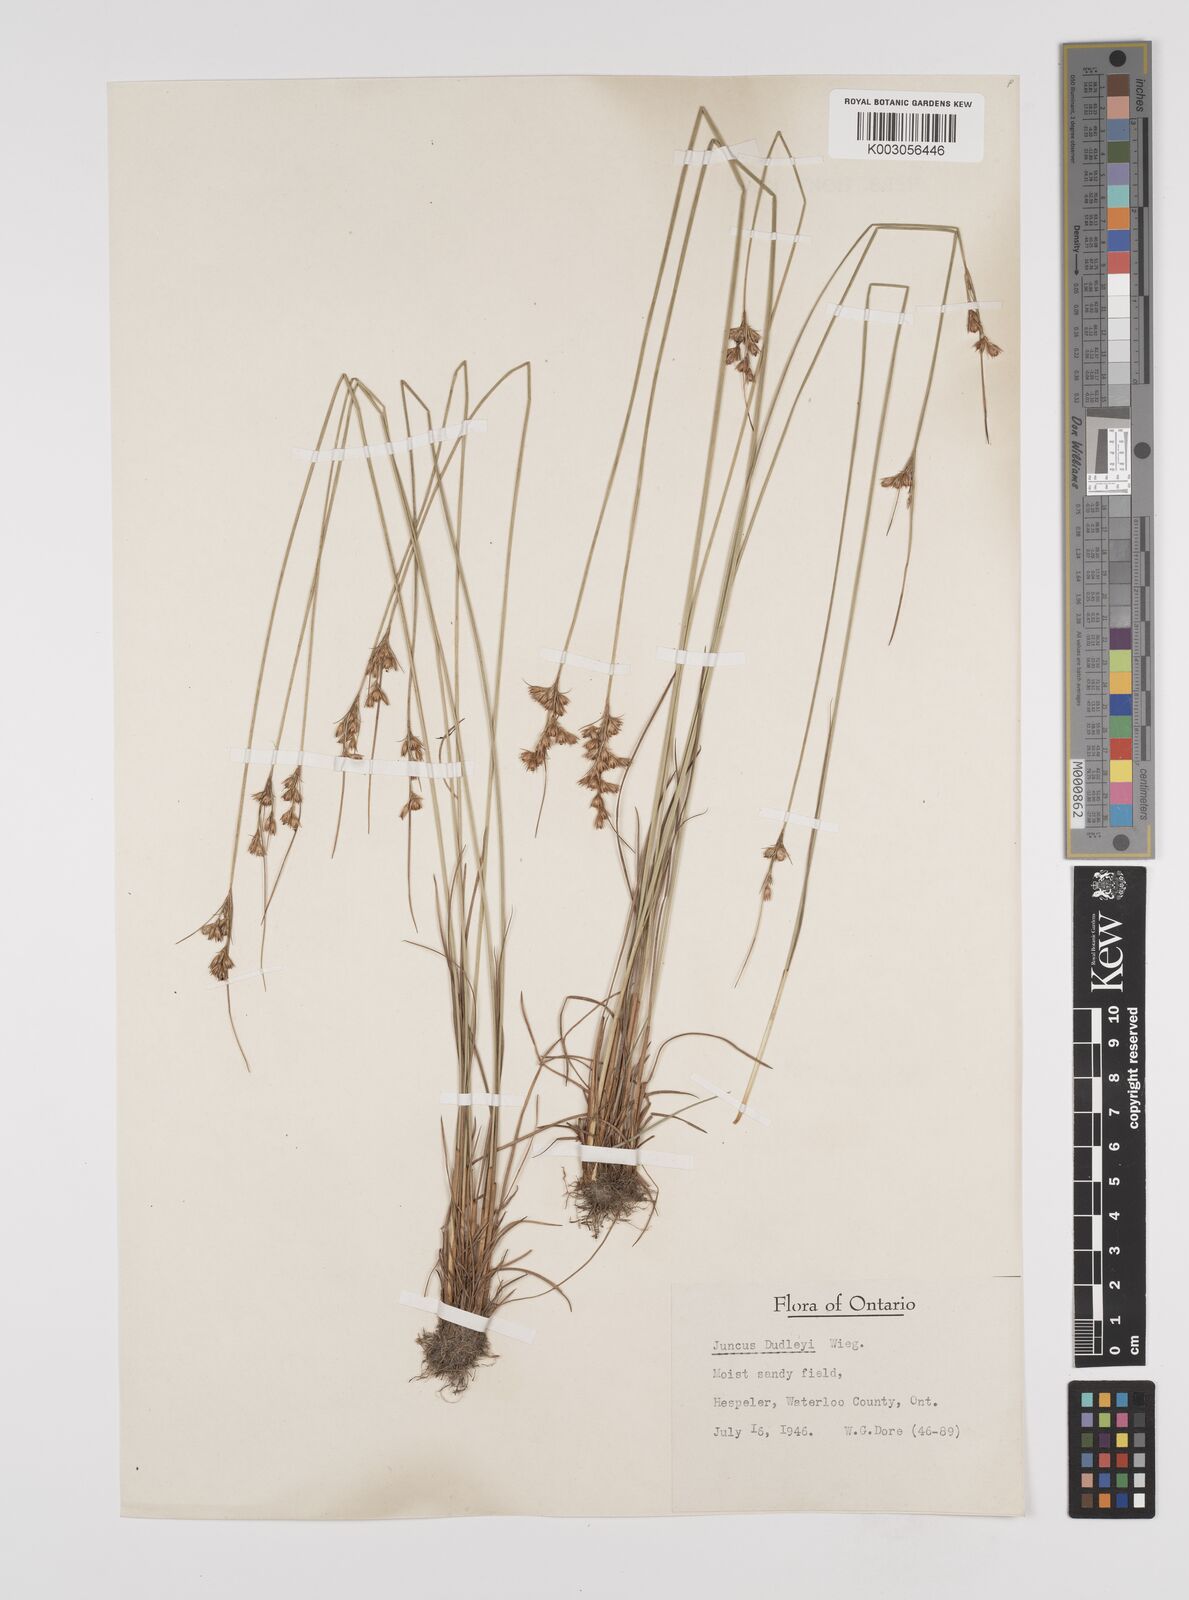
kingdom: Plantae
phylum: Tracheophyta
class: Liliopsida
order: Poales
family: Juncaceae
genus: Juncus
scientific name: Juncus dudleyi
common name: Dudley's rush
